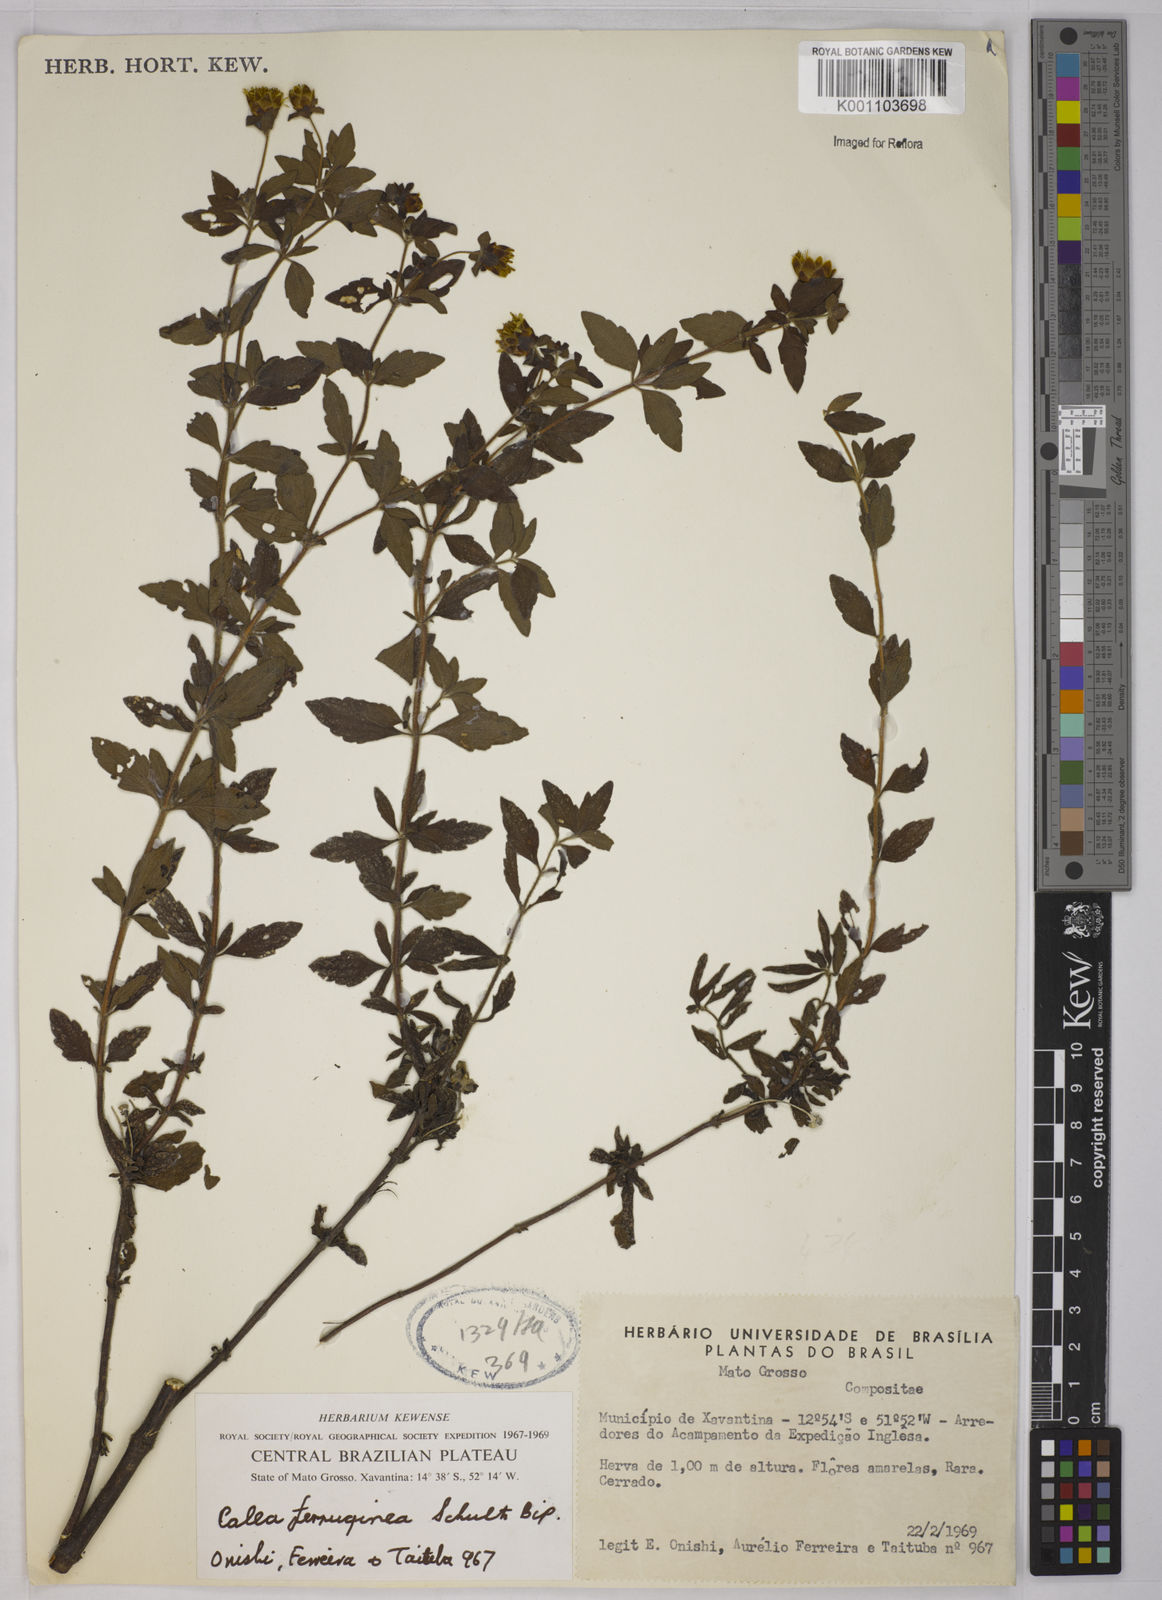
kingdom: Plantae
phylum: Tracheophyta
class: Magnoliopsida
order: Asterales
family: Asteraceae
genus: Calea
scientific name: Calea ferruginea
